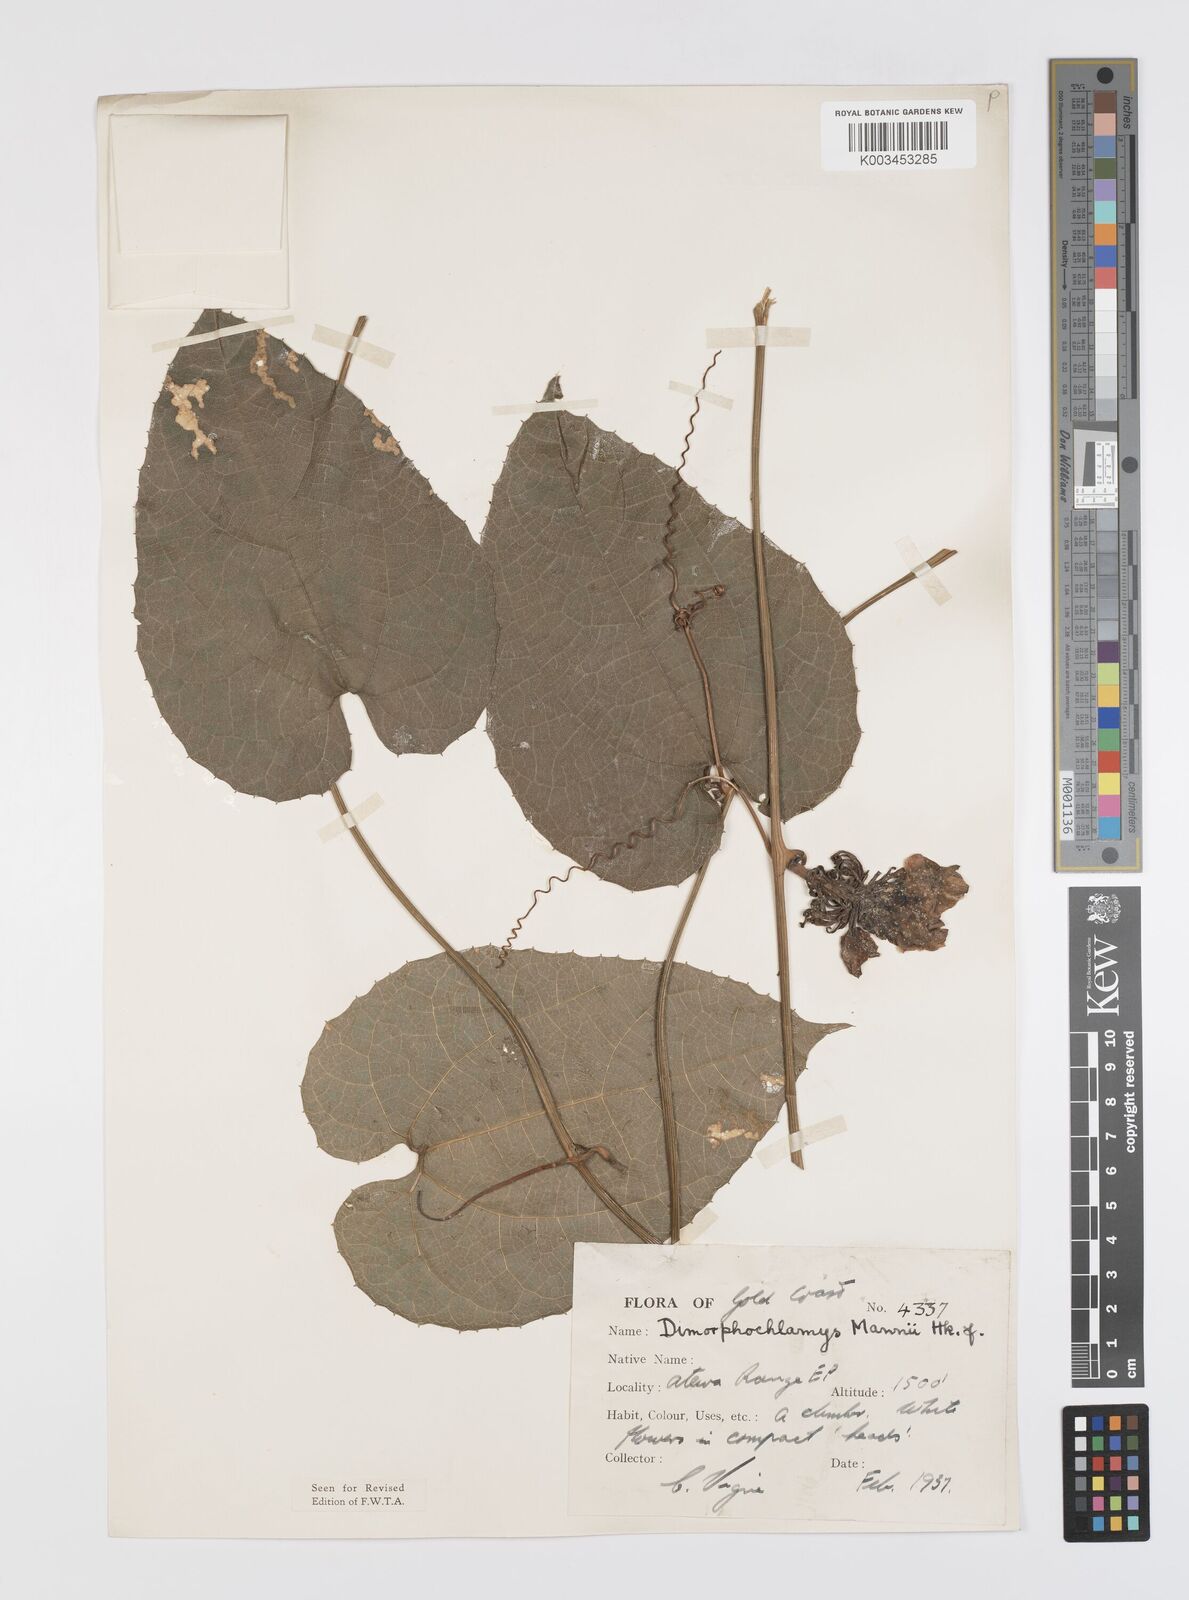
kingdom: Plantae
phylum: Tracheophyta
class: Magnoliopsida
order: Cucurbitales
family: Cucurbitaceae
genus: Momordica
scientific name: Momordica cabrae
